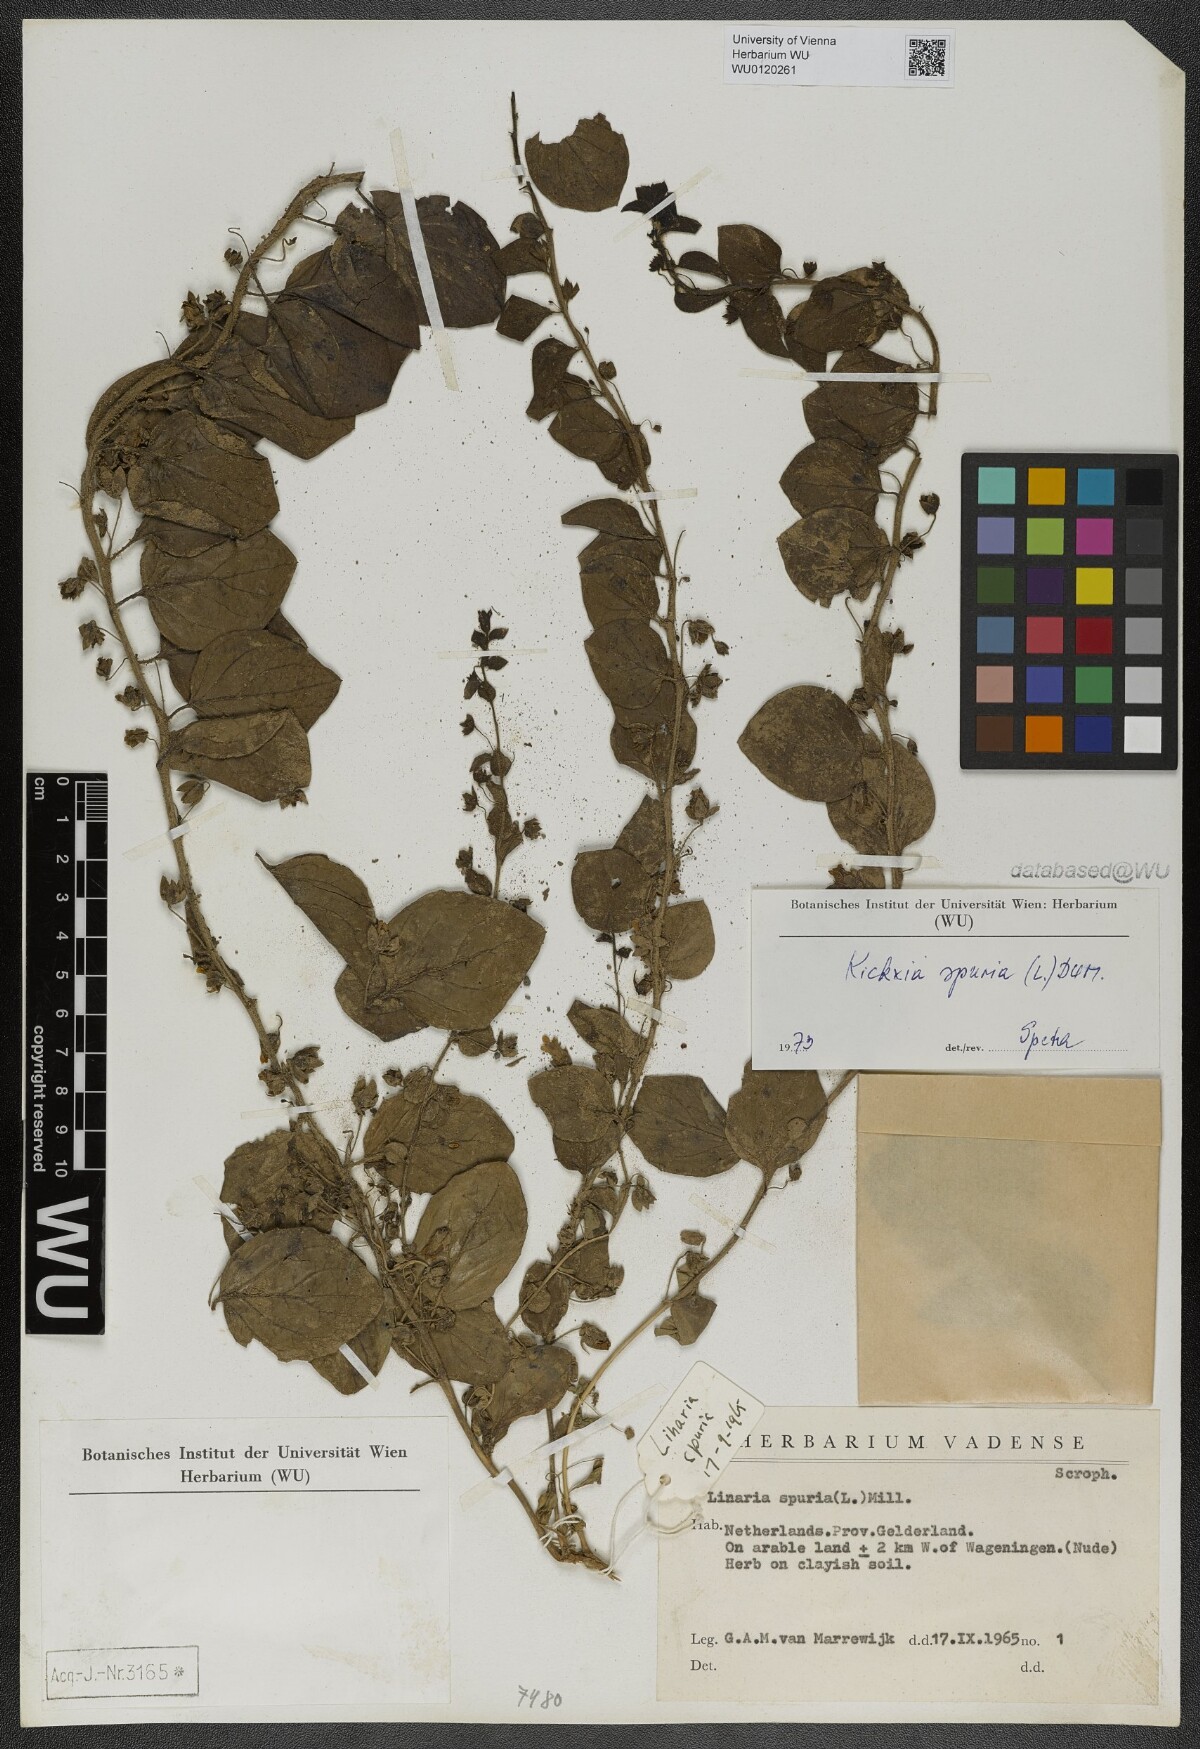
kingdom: Plantae
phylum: Tracheophyta
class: Magnoliopsida
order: Lamiales
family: Plantaginaceae
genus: Kickxia
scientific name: Kickxia spuria
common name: Round-leaved fluellen
